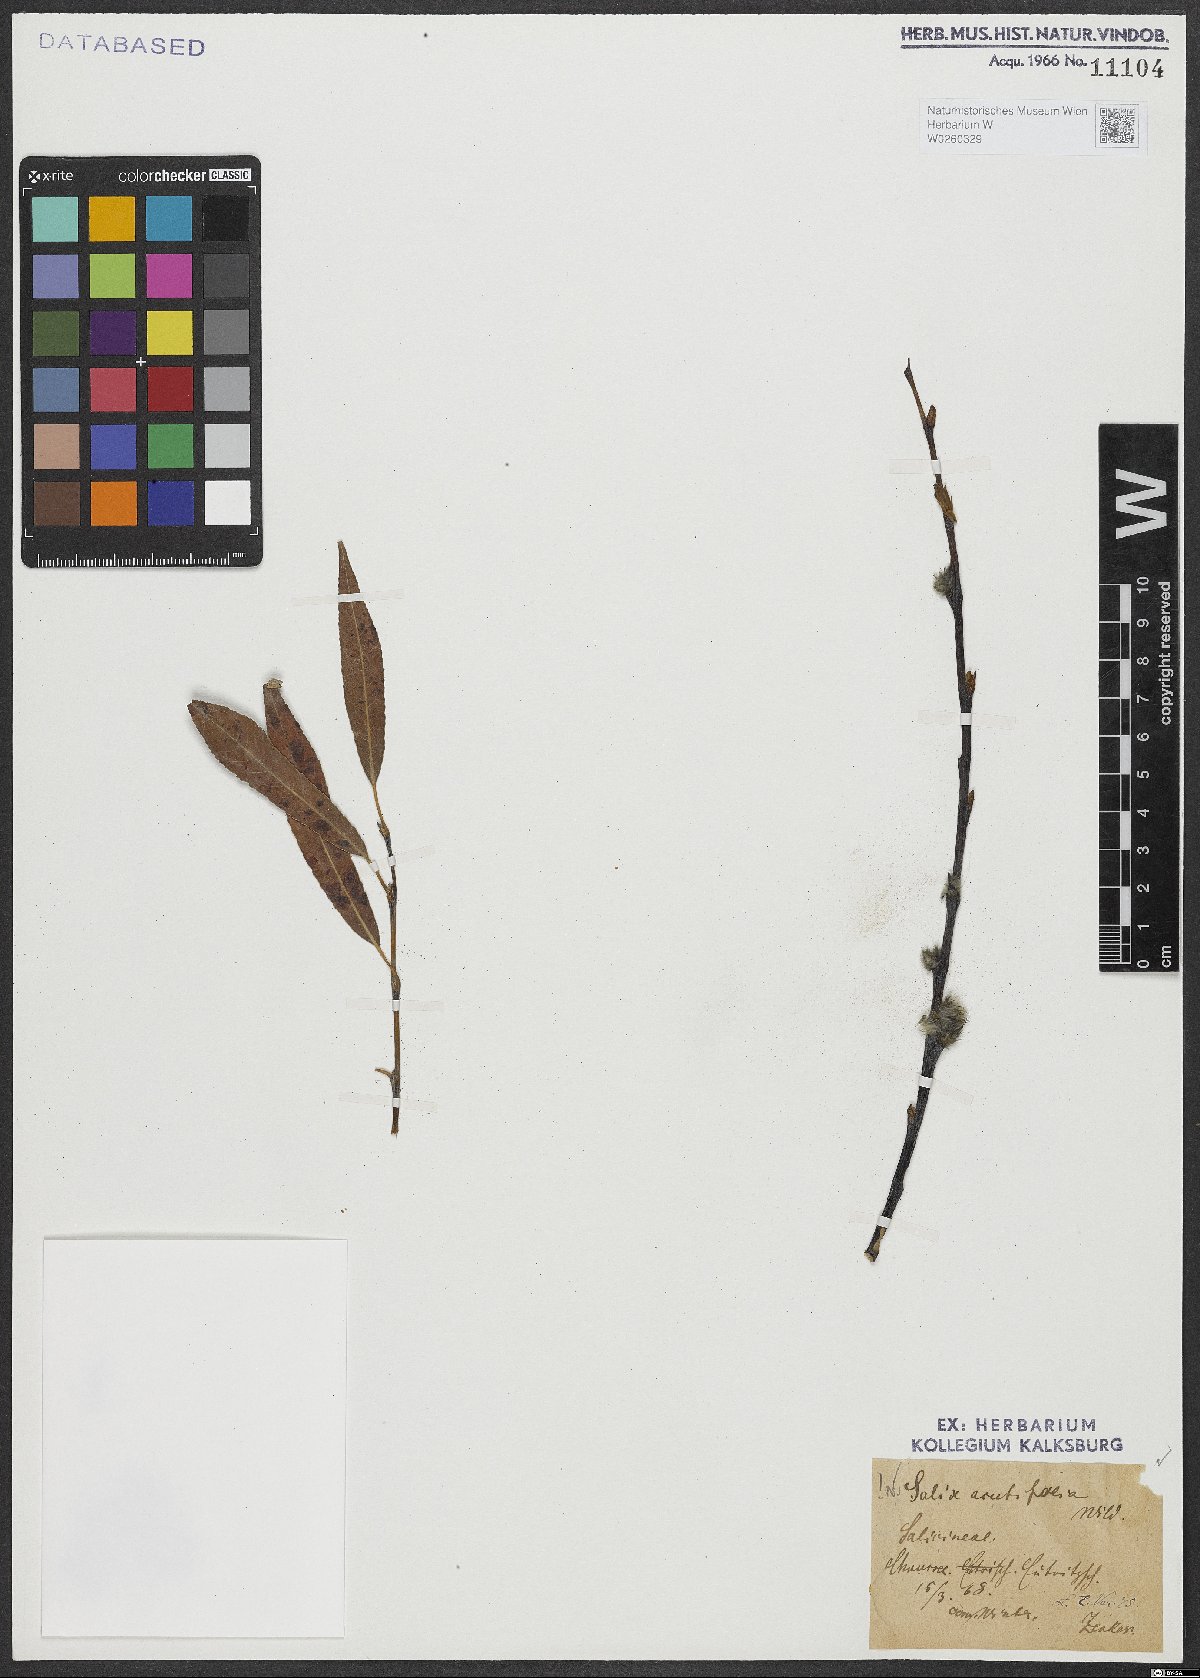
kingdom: Plantae
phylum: Tracheophyta
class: Magnoliopsida
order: Malpighiales
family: Salicaceae
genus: Salix
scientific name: Salix acutifolia
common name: Siberian violet-willow
